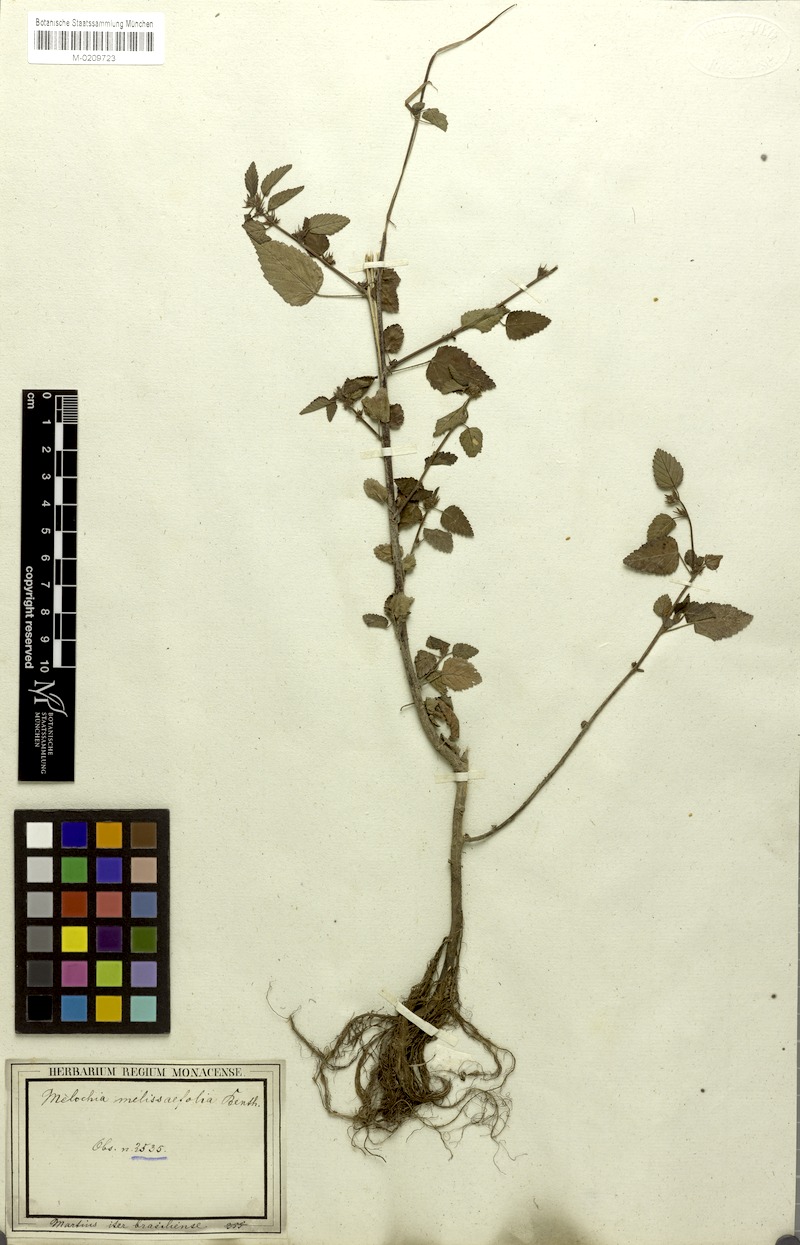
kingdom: Plantae
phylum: Tracheophyta
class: Magnoliopsida
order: Malvales
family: Malvaceae
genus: Melochia
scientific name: Melochia melissifolia
